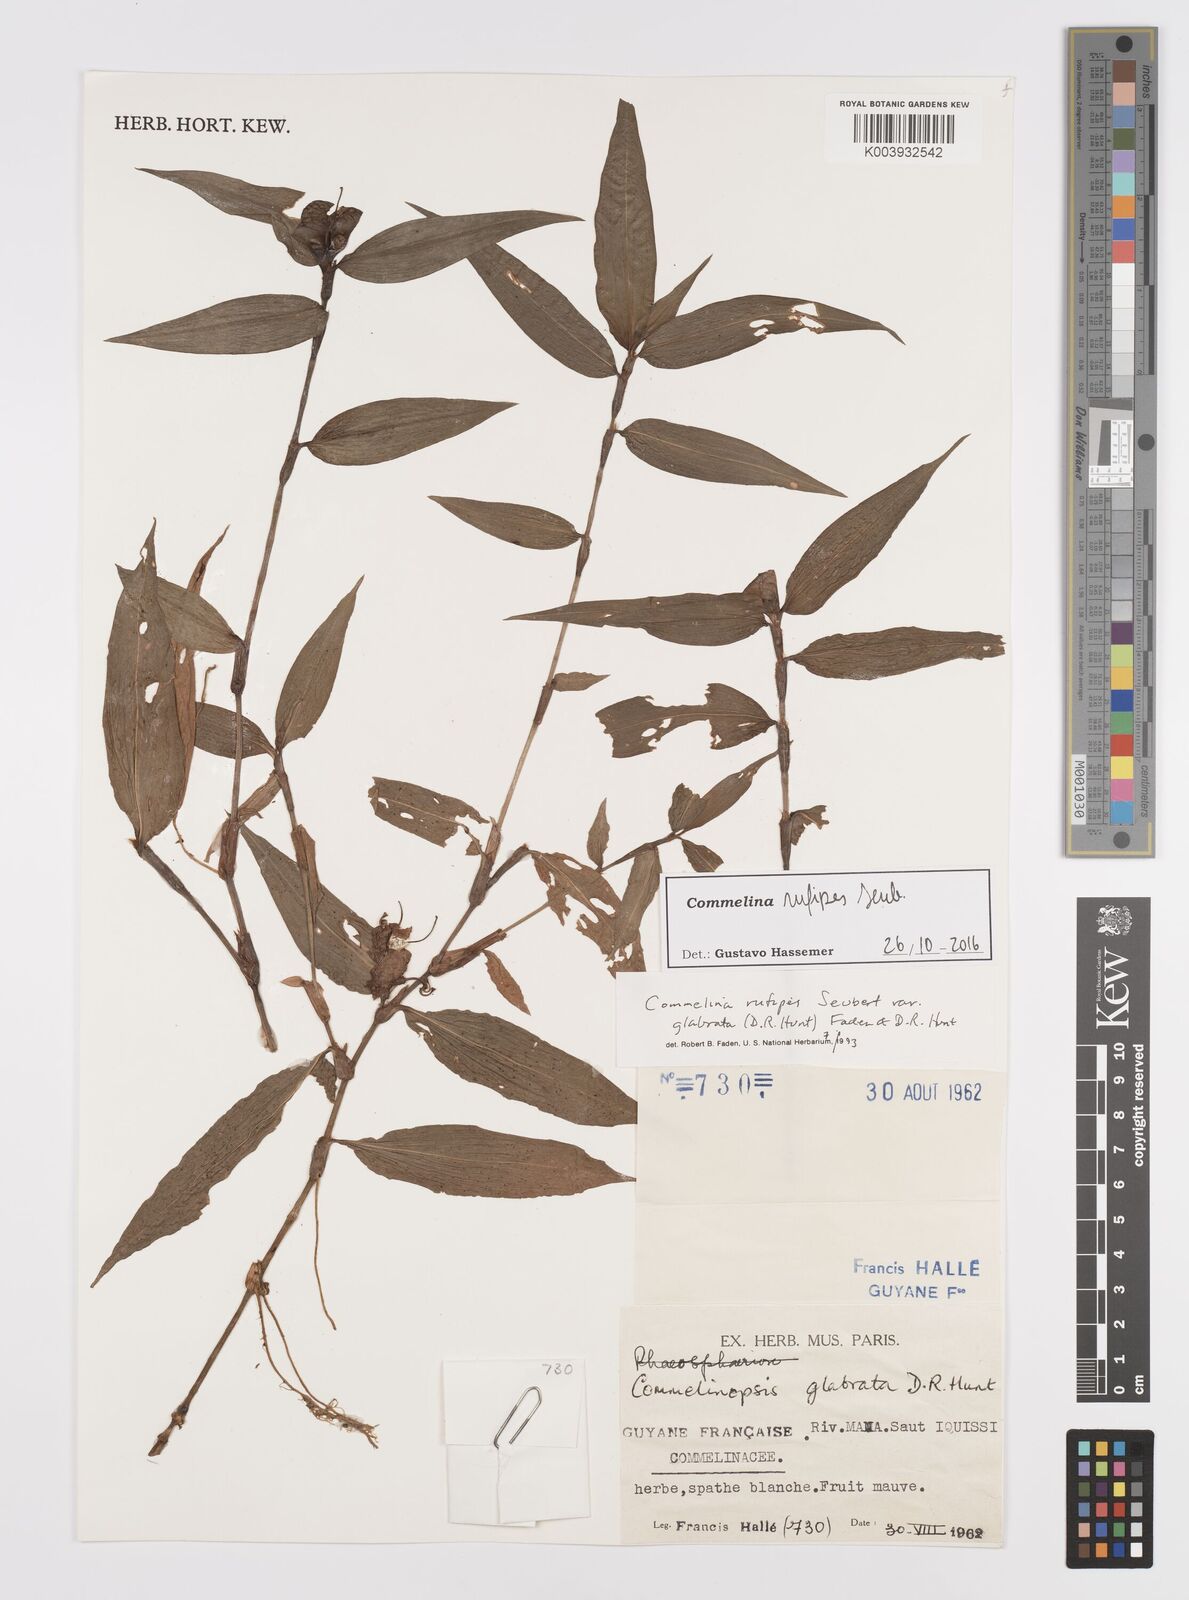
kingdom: Plantae
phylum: Tracheophyta
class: Liliopsida
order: Commelinales
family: Commelinaceae
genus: Commelina
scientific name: Commelina rufipes
